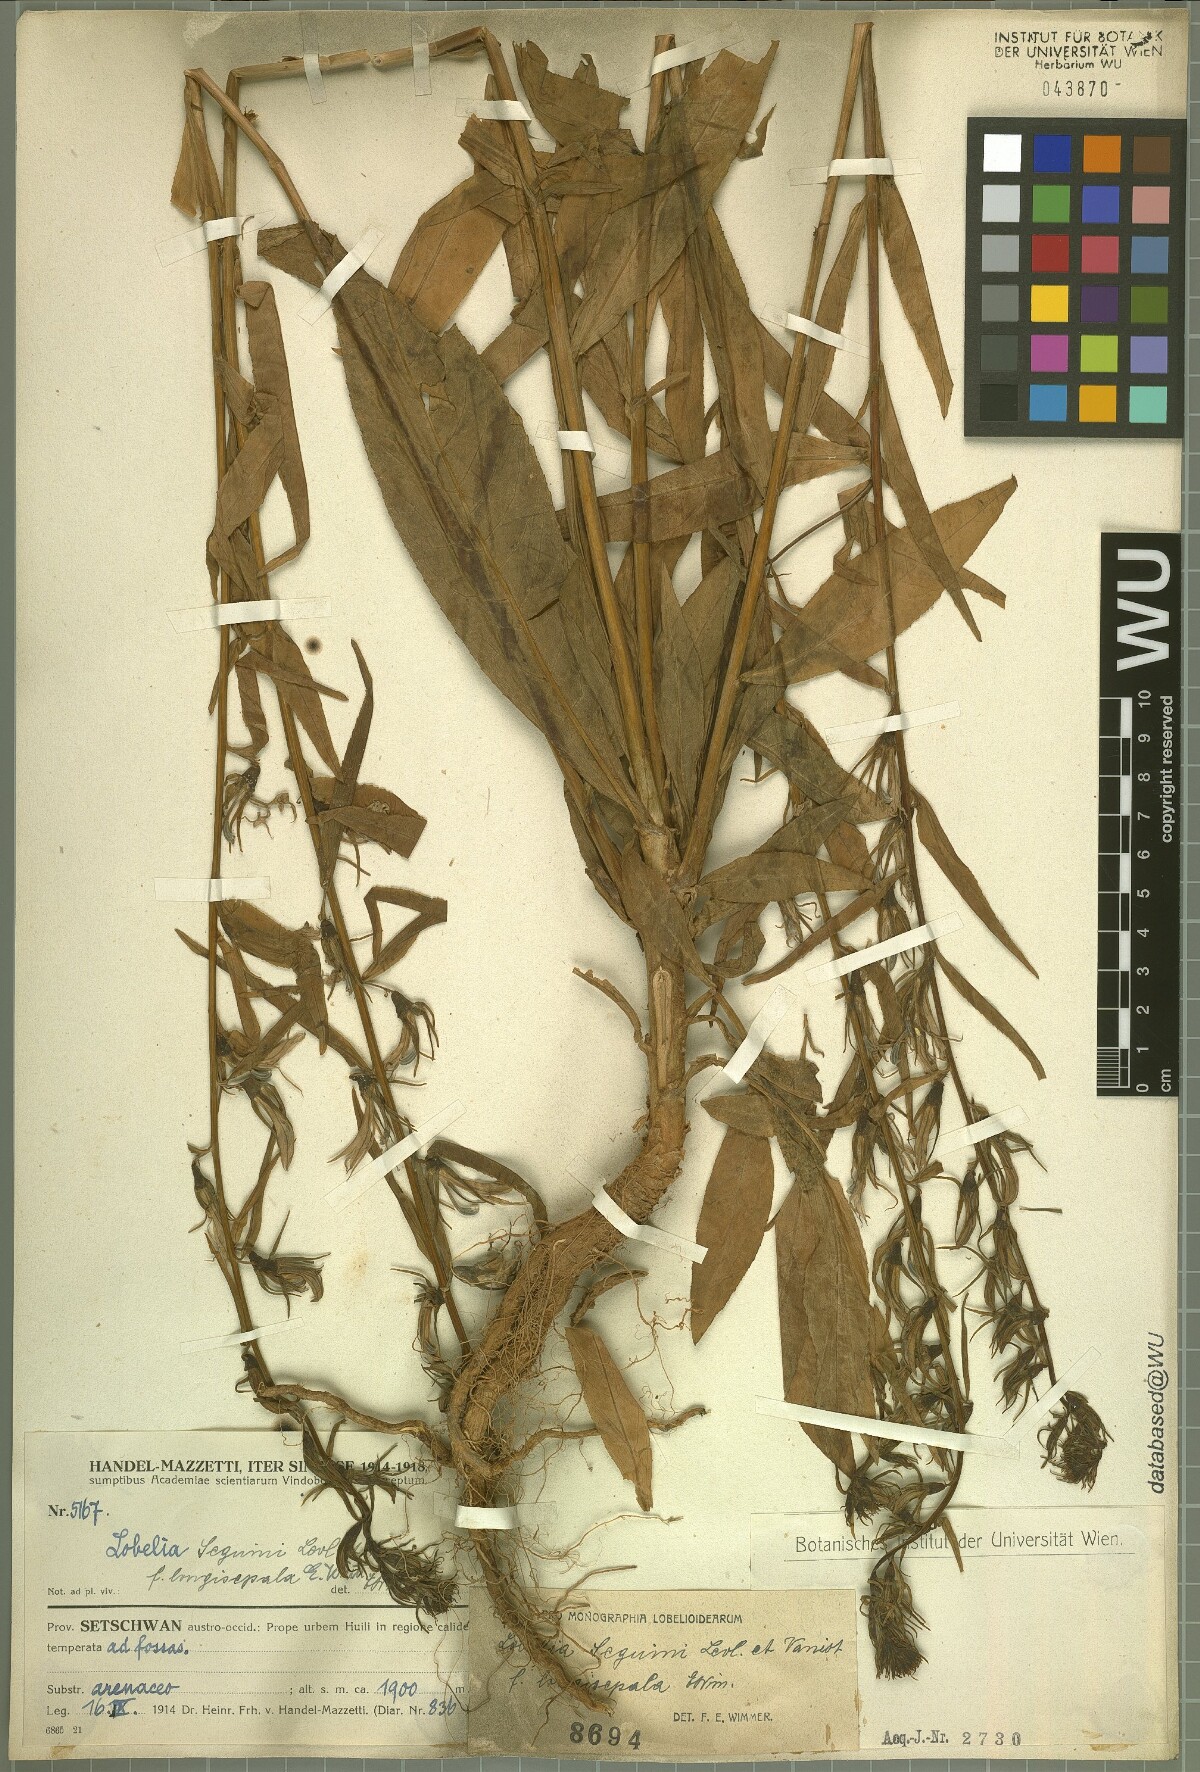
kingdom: Plantae
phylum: Tracheophyta
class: Magnoliopsida
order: Asterales
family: Campanulaceae
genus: Lobelia
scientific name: Lobelia seguinii
